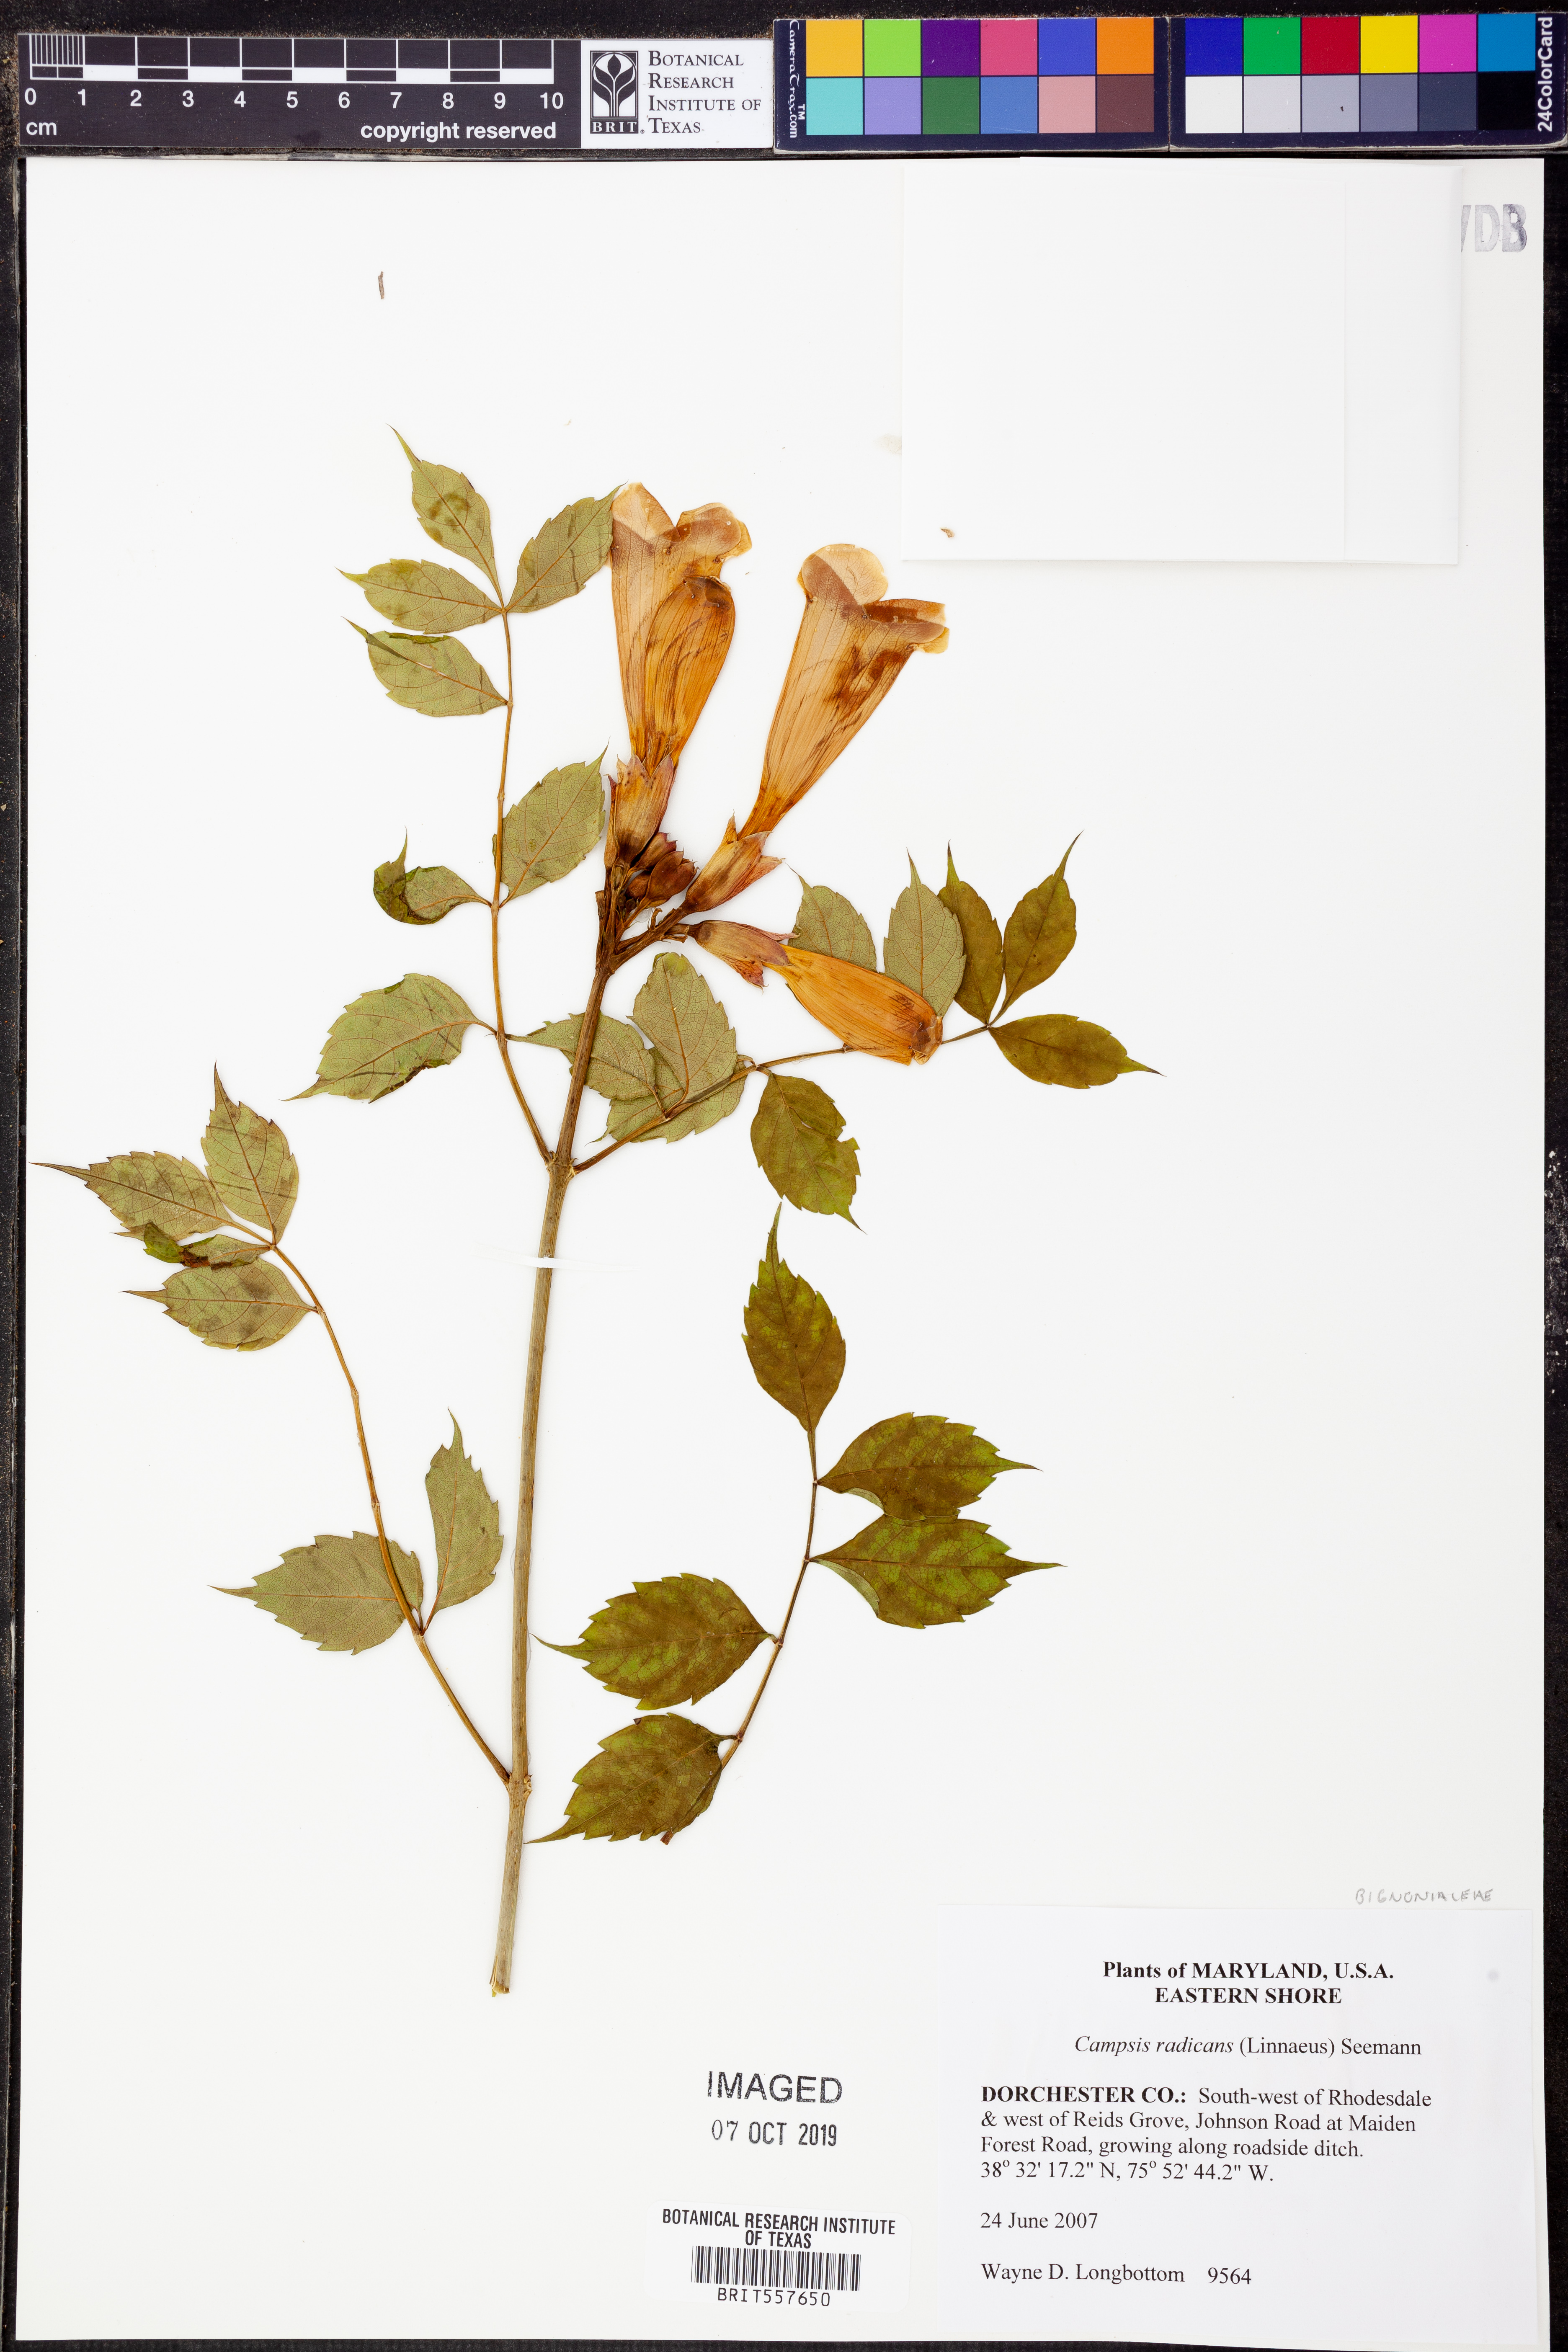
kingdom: Plantae
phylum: Tracheophyta
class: Magnoliopsida
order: Lamiales
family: Bignoniaceae
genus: Campsis
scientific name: Campsis radicans
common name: Trumpet-creeper
